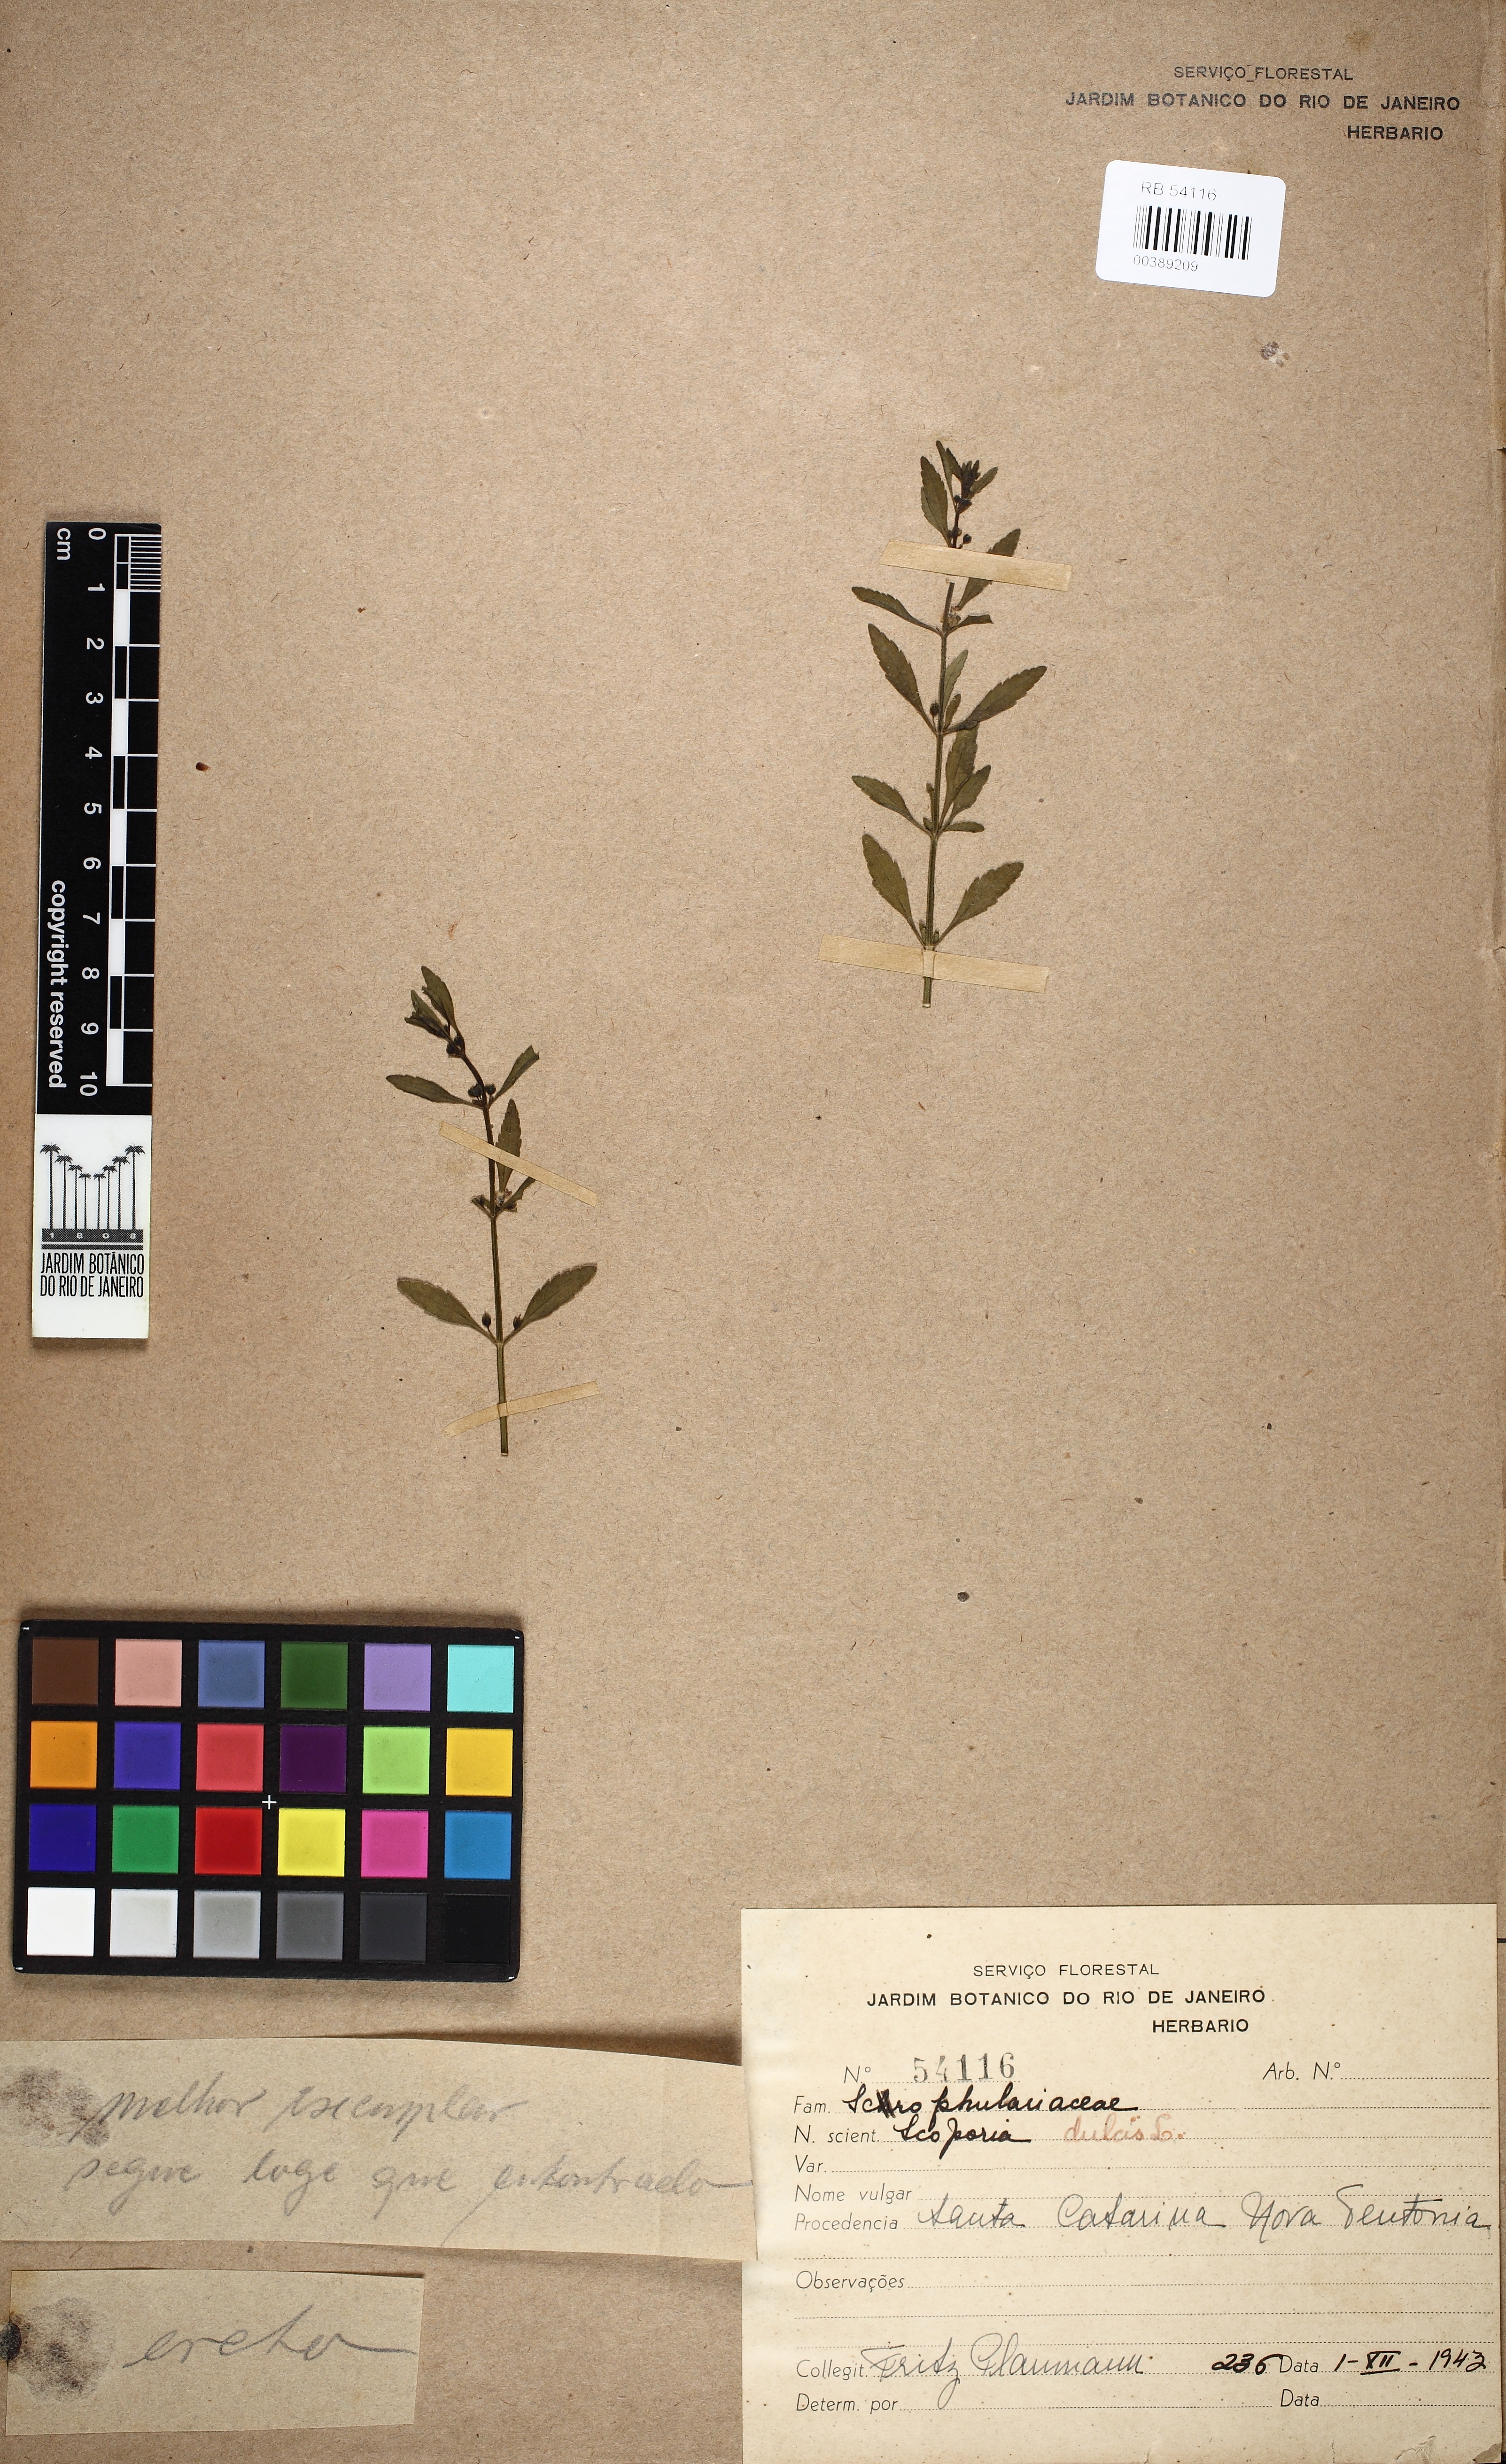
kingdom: Plantae
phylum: Tracheophyta
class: Magnoliopsida
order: Lamiales
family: Plantaginaceae
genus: Scoparia
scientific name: Scoparia dulcis
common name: Scoparia-weed
